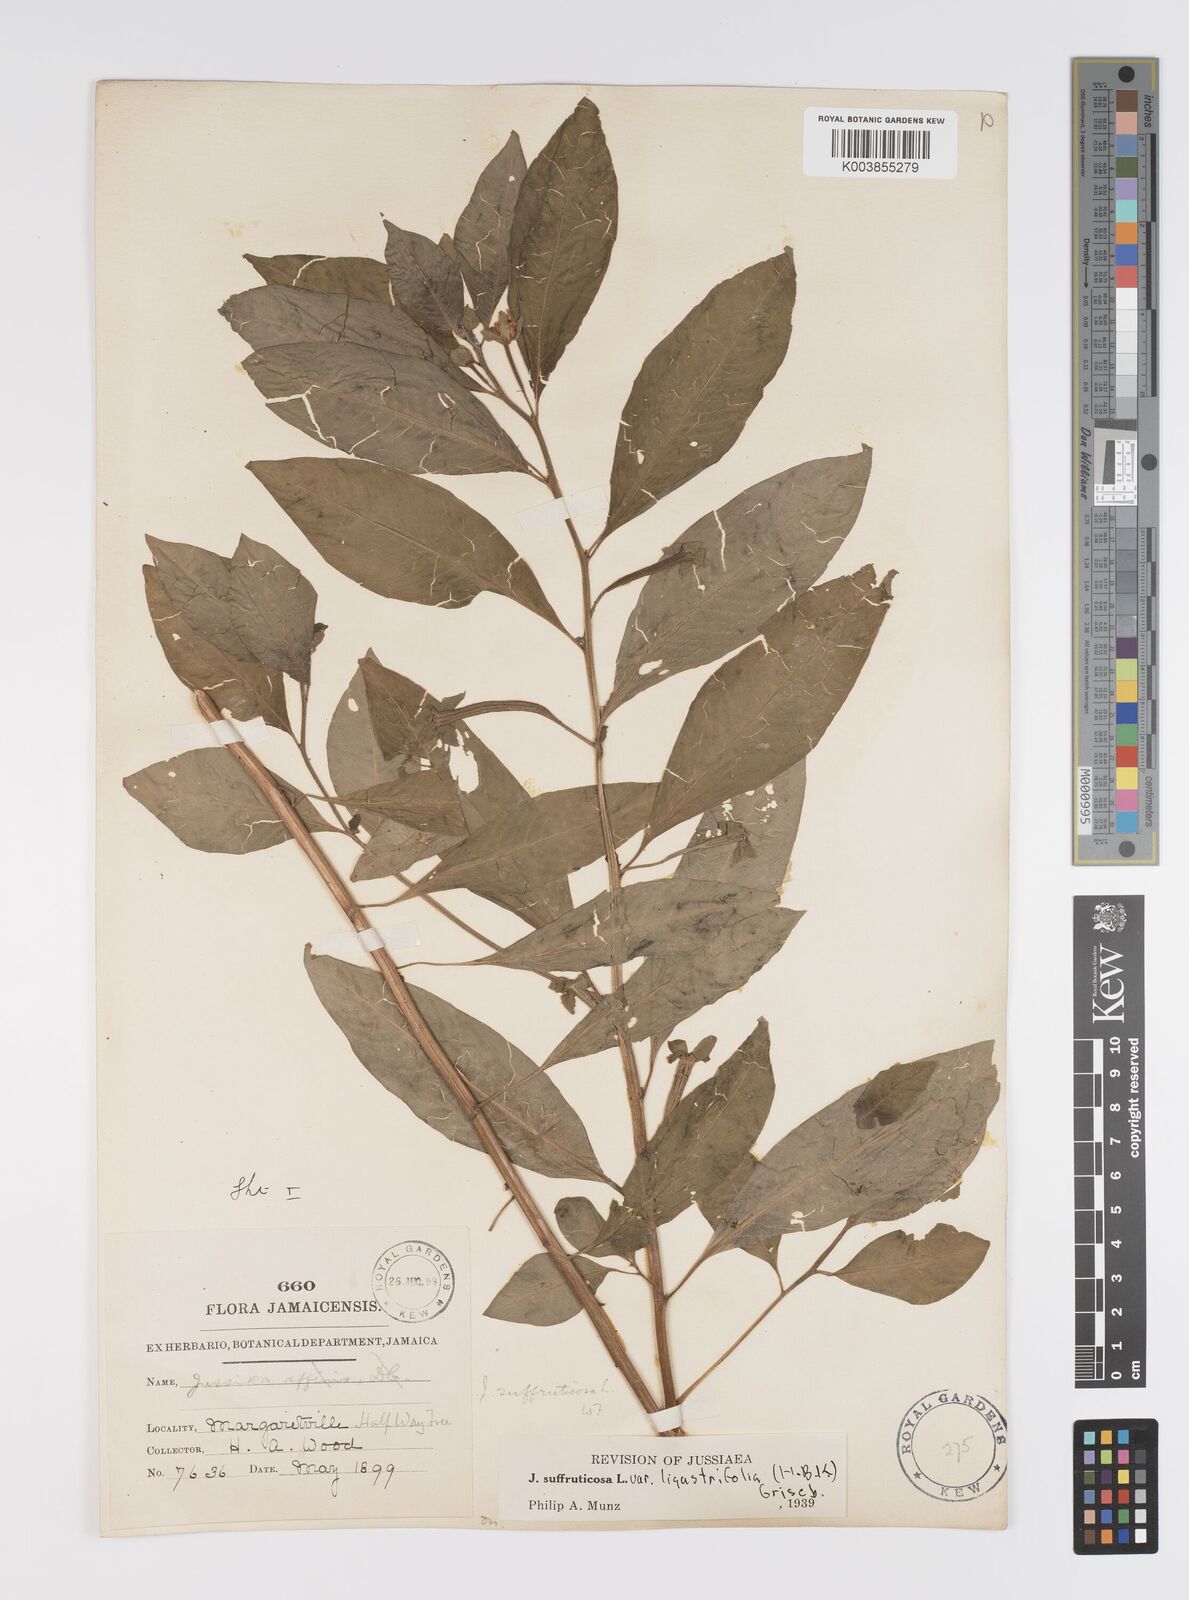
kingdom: Plantae
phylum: Tracheophyta
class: Magnoliopsida
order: Myrtales
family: Onagraceae
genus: Ludwigia
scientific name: Ludwigia octovalvis
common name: Water-primrose
